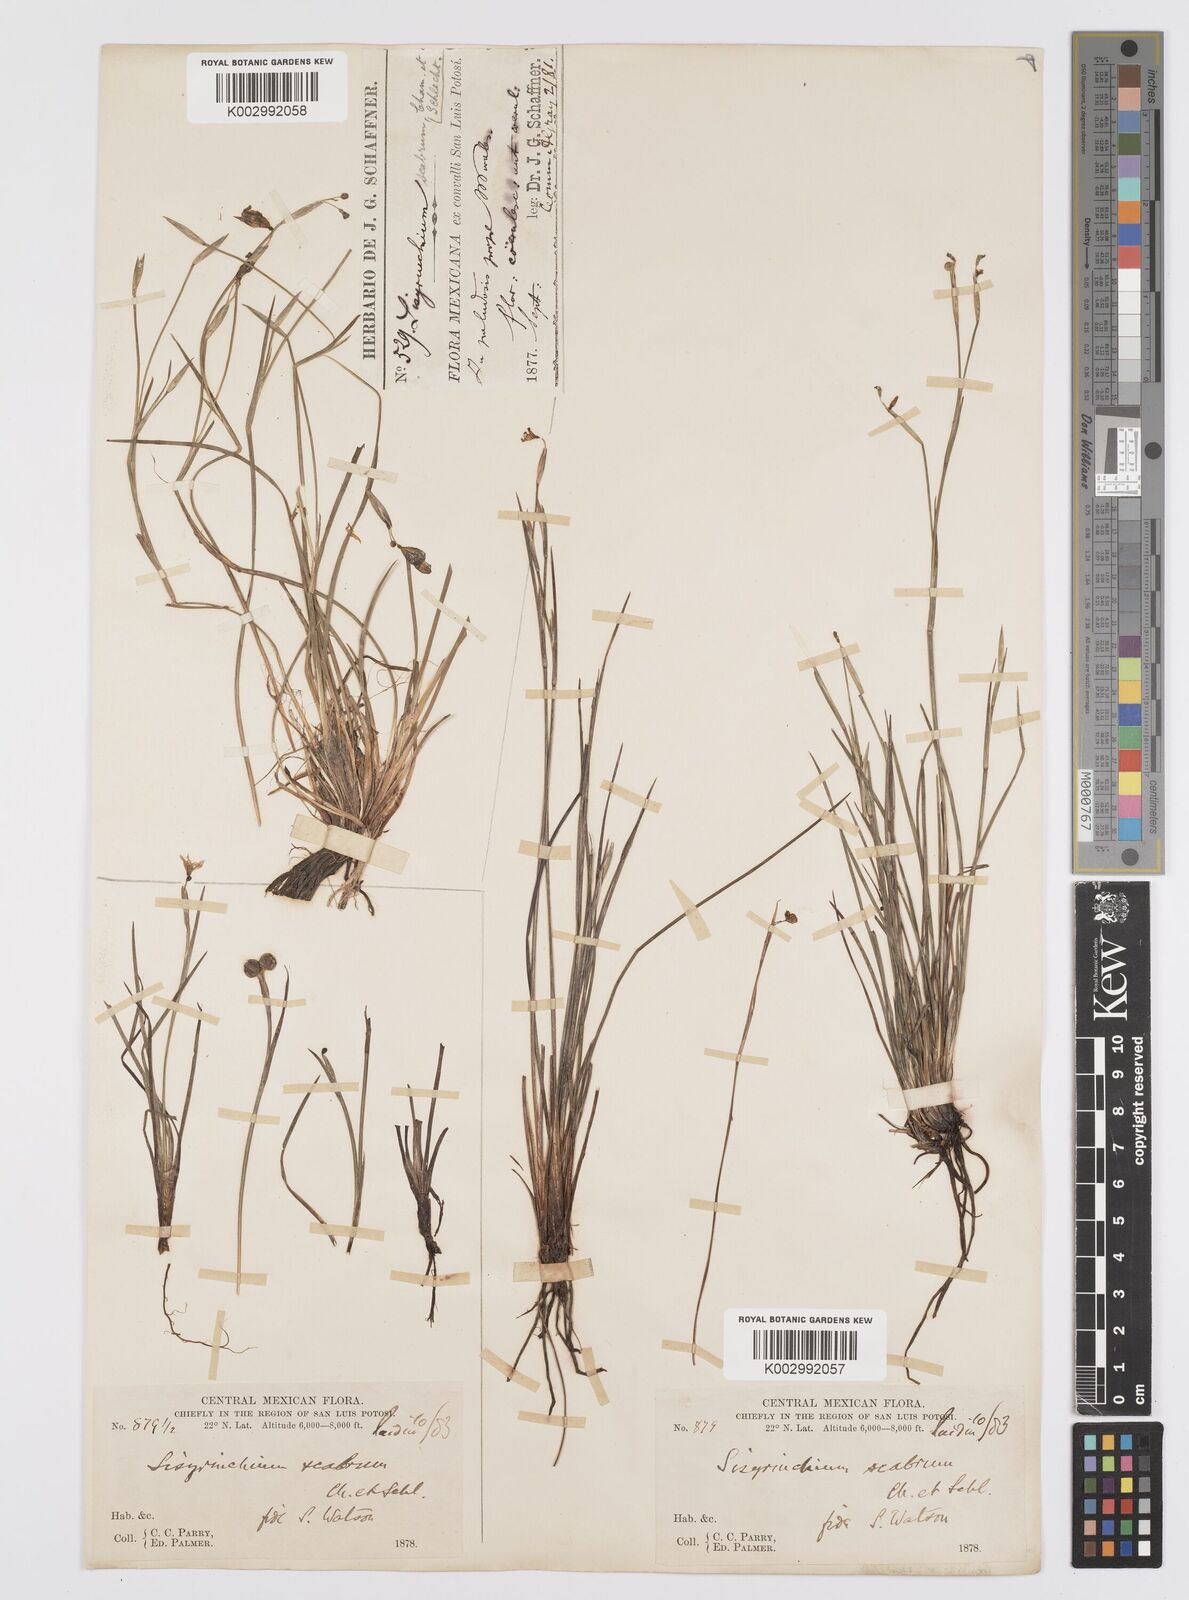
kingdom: Plantae
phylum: Tracheophyta
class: Liliopsida
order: Asparagales
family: Iridaceae
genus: Sisyrinchium
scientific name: Sisyrinchium scabrum
